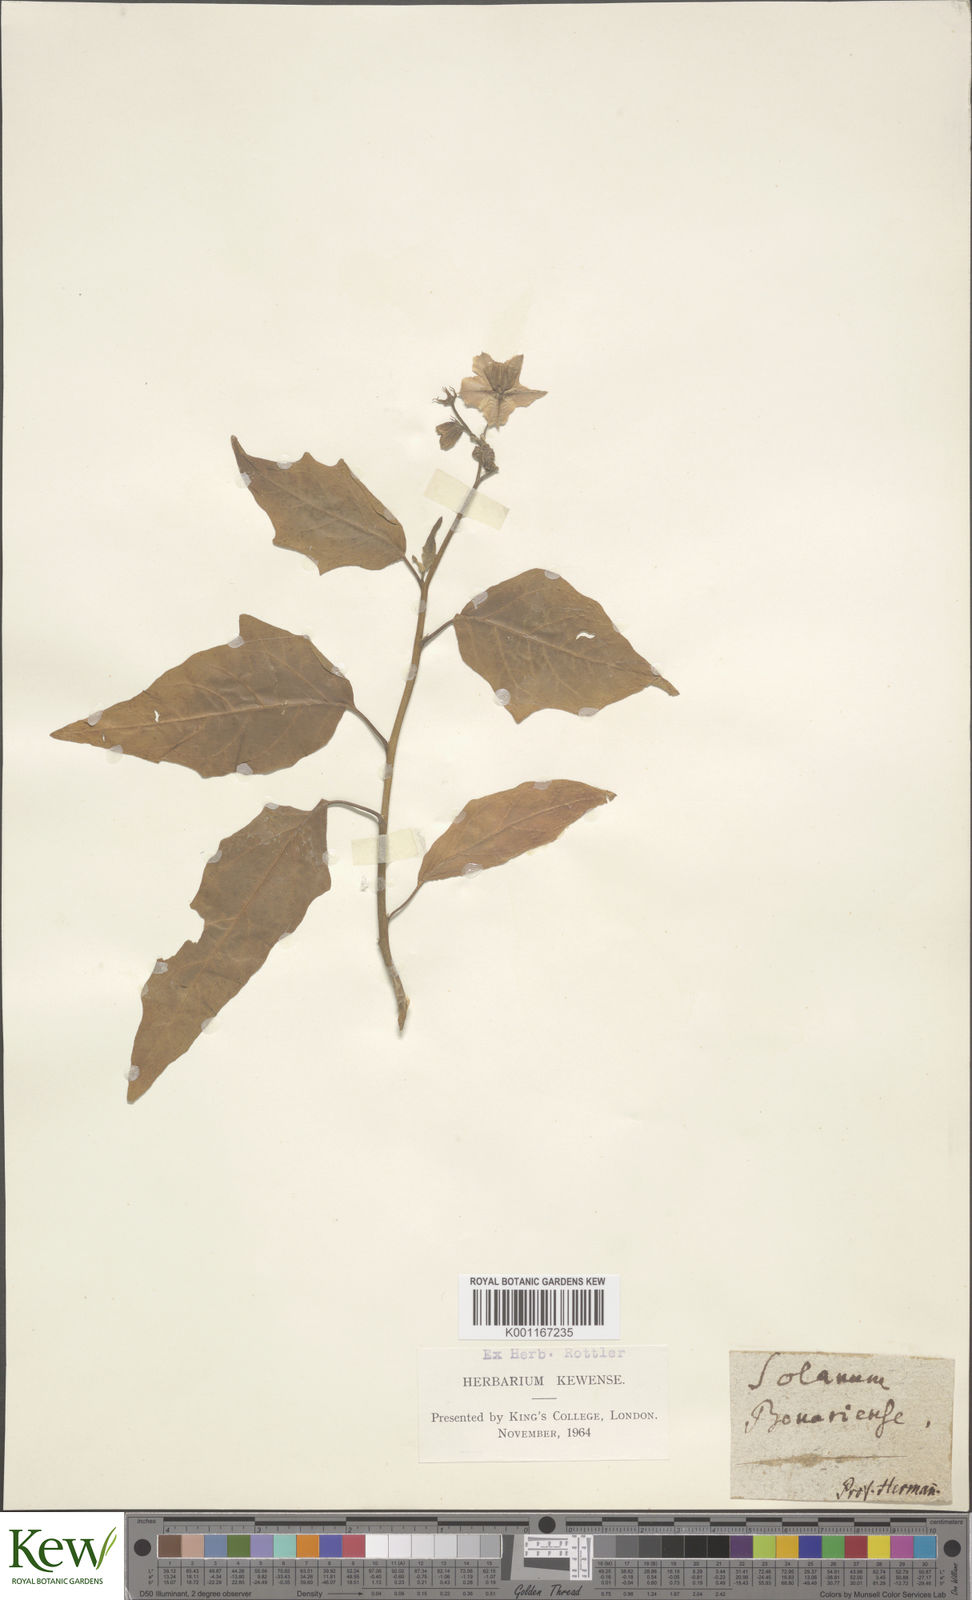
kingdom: Plantae
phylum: Tracheophyta
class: Magnoliopsida
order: Solanales
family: Solanaceae
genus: Solanum
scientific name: Solanum bonariense
